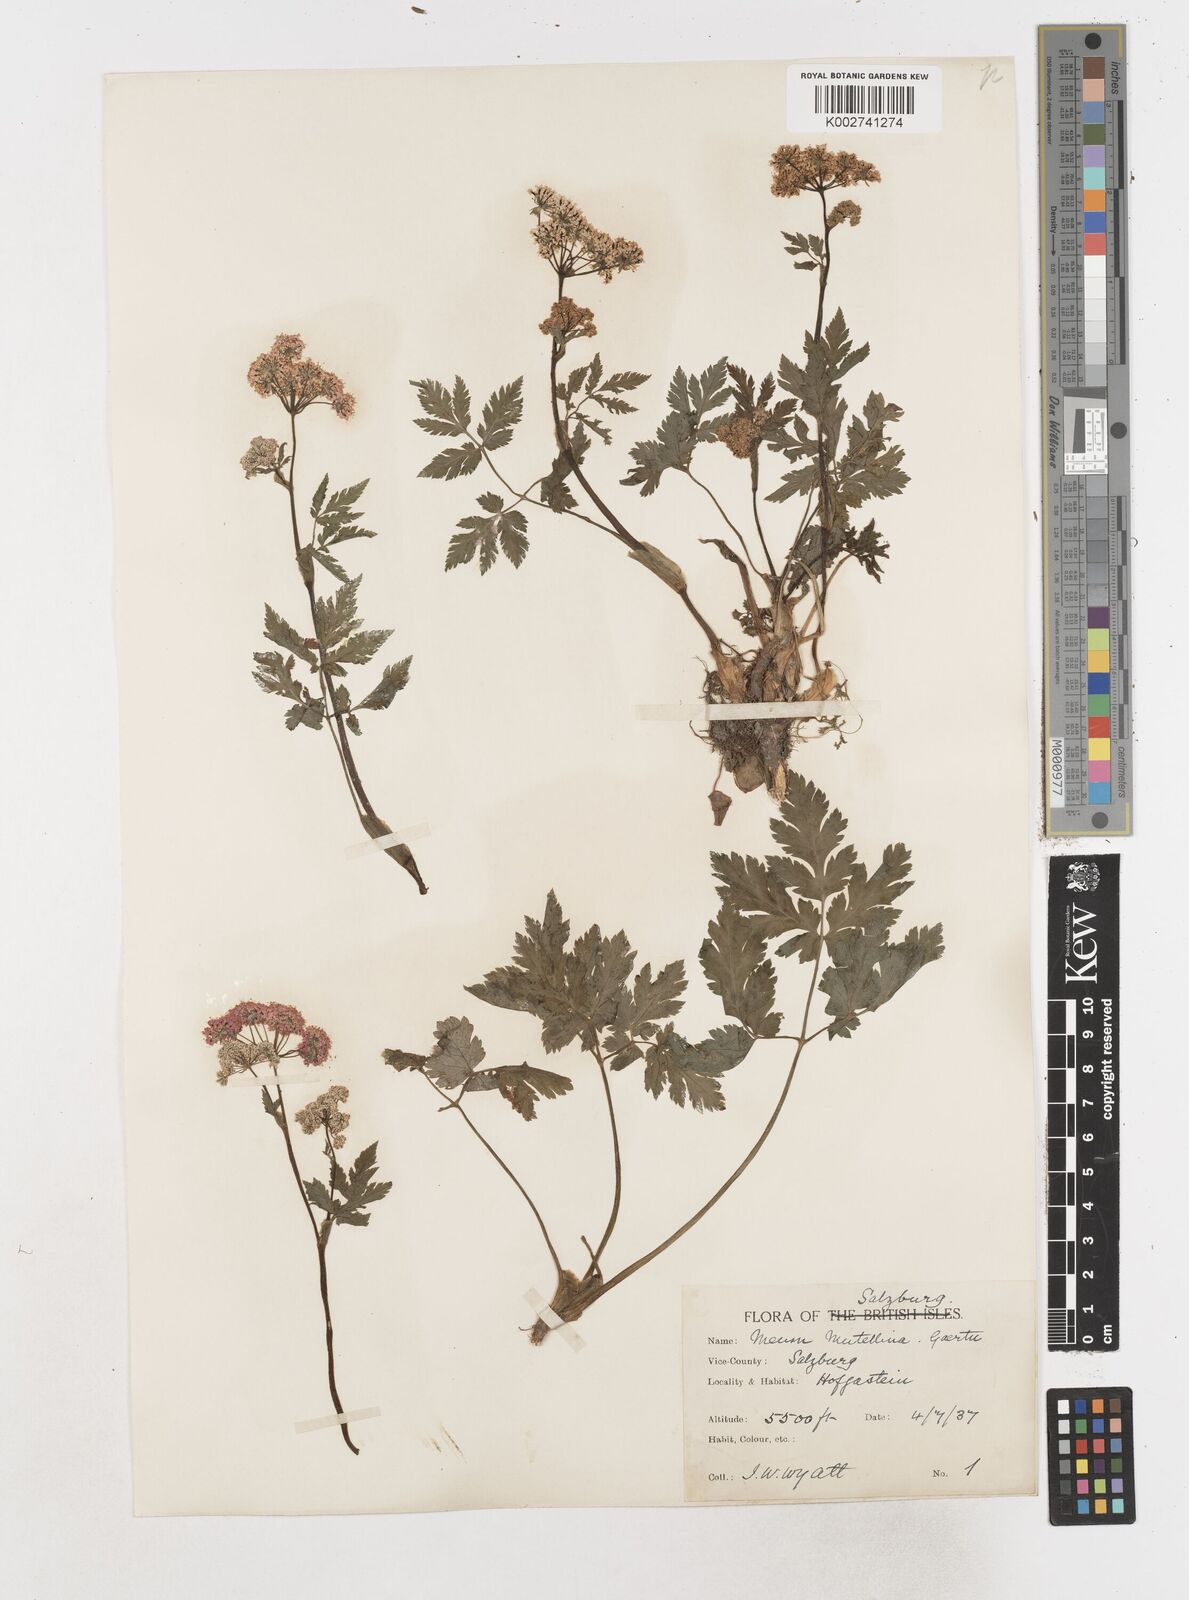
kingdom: Plantae
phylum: Tracheophyta
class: Magnoliopsida
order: Apiales
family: Apiaceae
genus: Mutellina
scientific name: Mutellina adonidifolia
